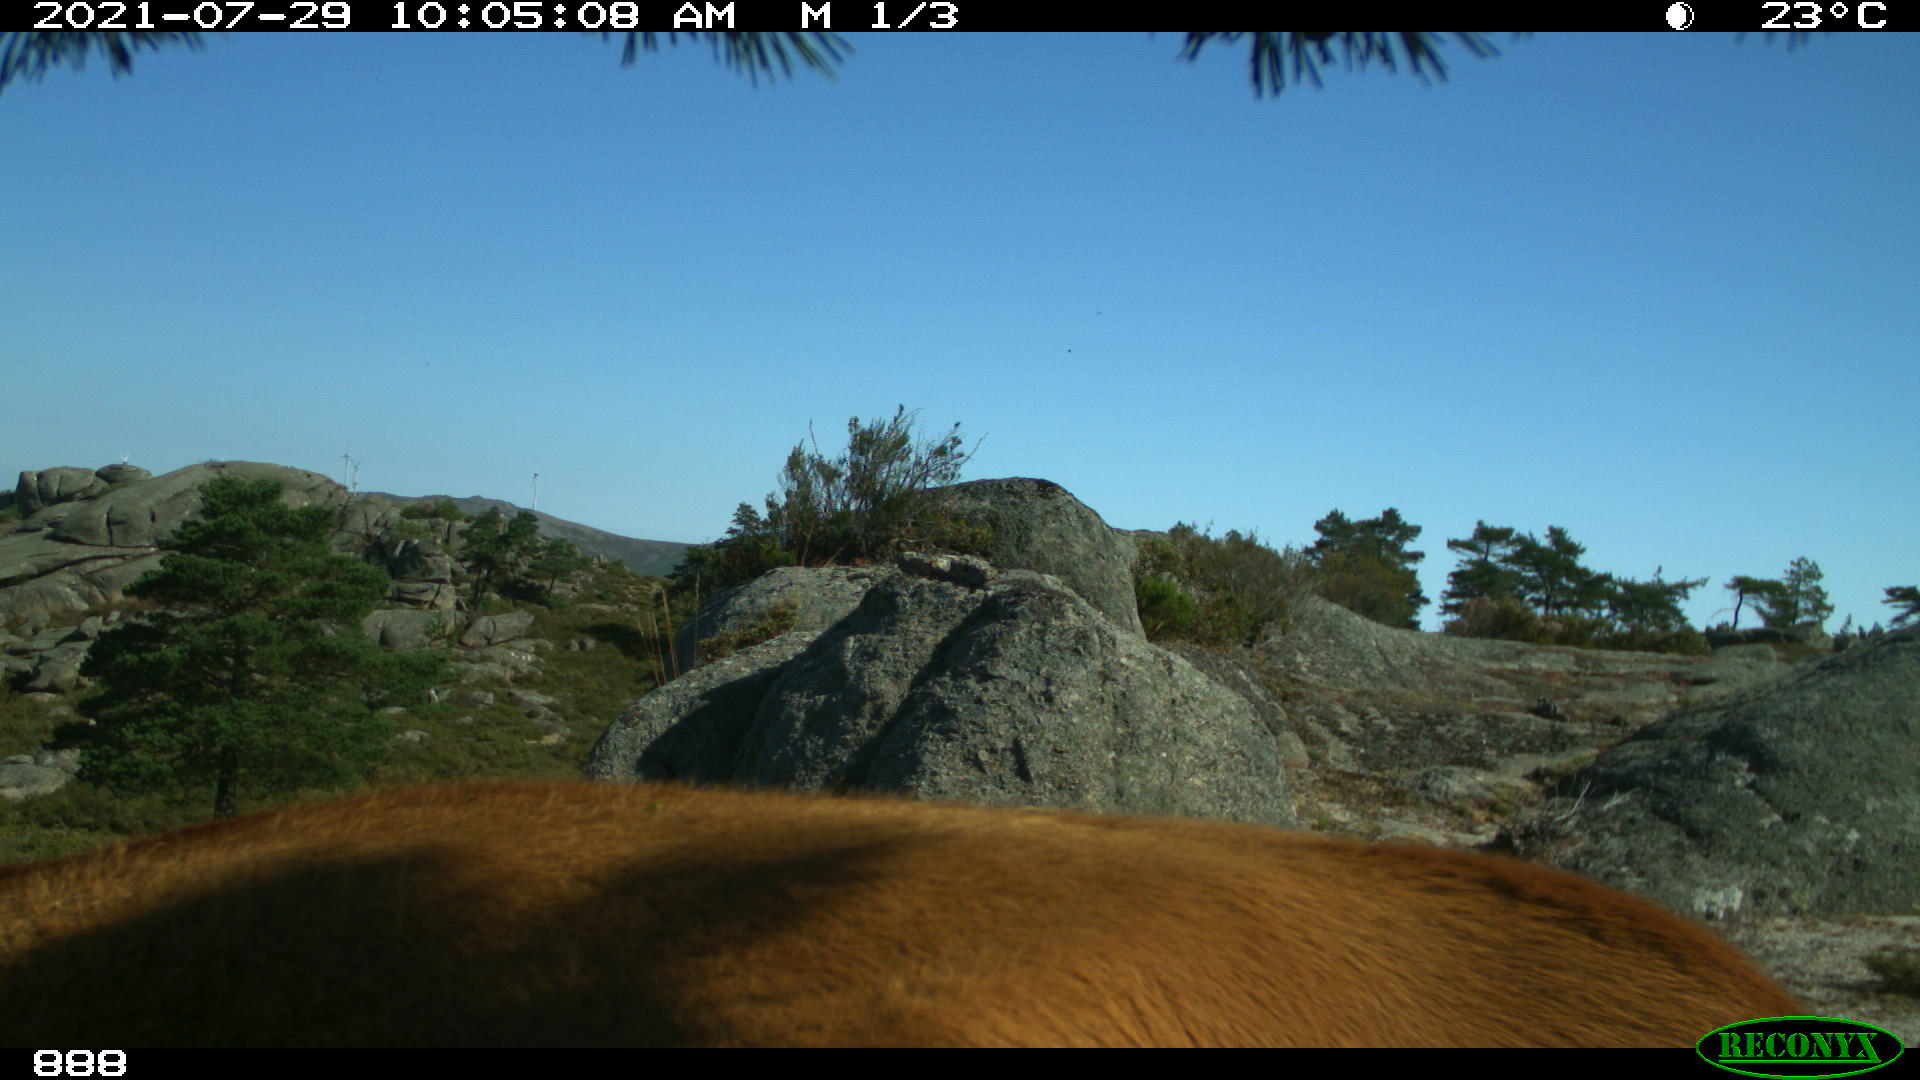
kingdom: Animalia
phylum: Chordata
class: Mammalia
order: Artiodactyla
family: Bovidae
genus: Bos
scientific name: Bos taurus
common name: Domesticated cattle
